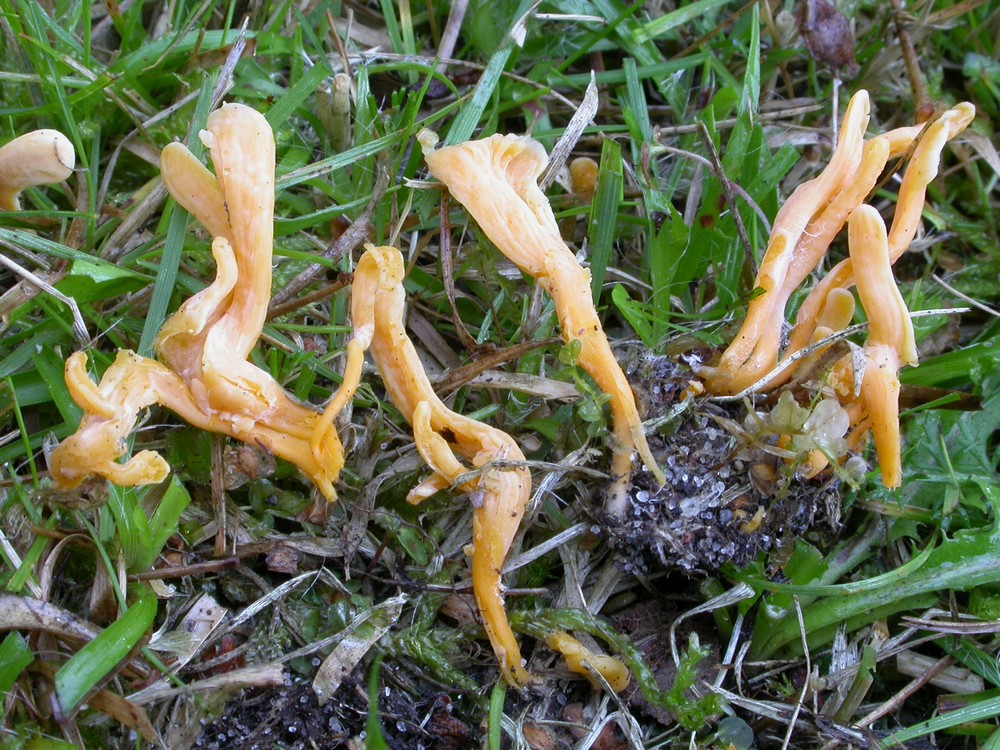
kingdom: Fungi
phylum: Basidiomycota
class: Agaricomycetes
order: Agaricales
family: Clavariaceae
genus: Clavulinopsis
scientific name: Clavulinopsis luteoalba
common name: abrikos-køllesvamp
